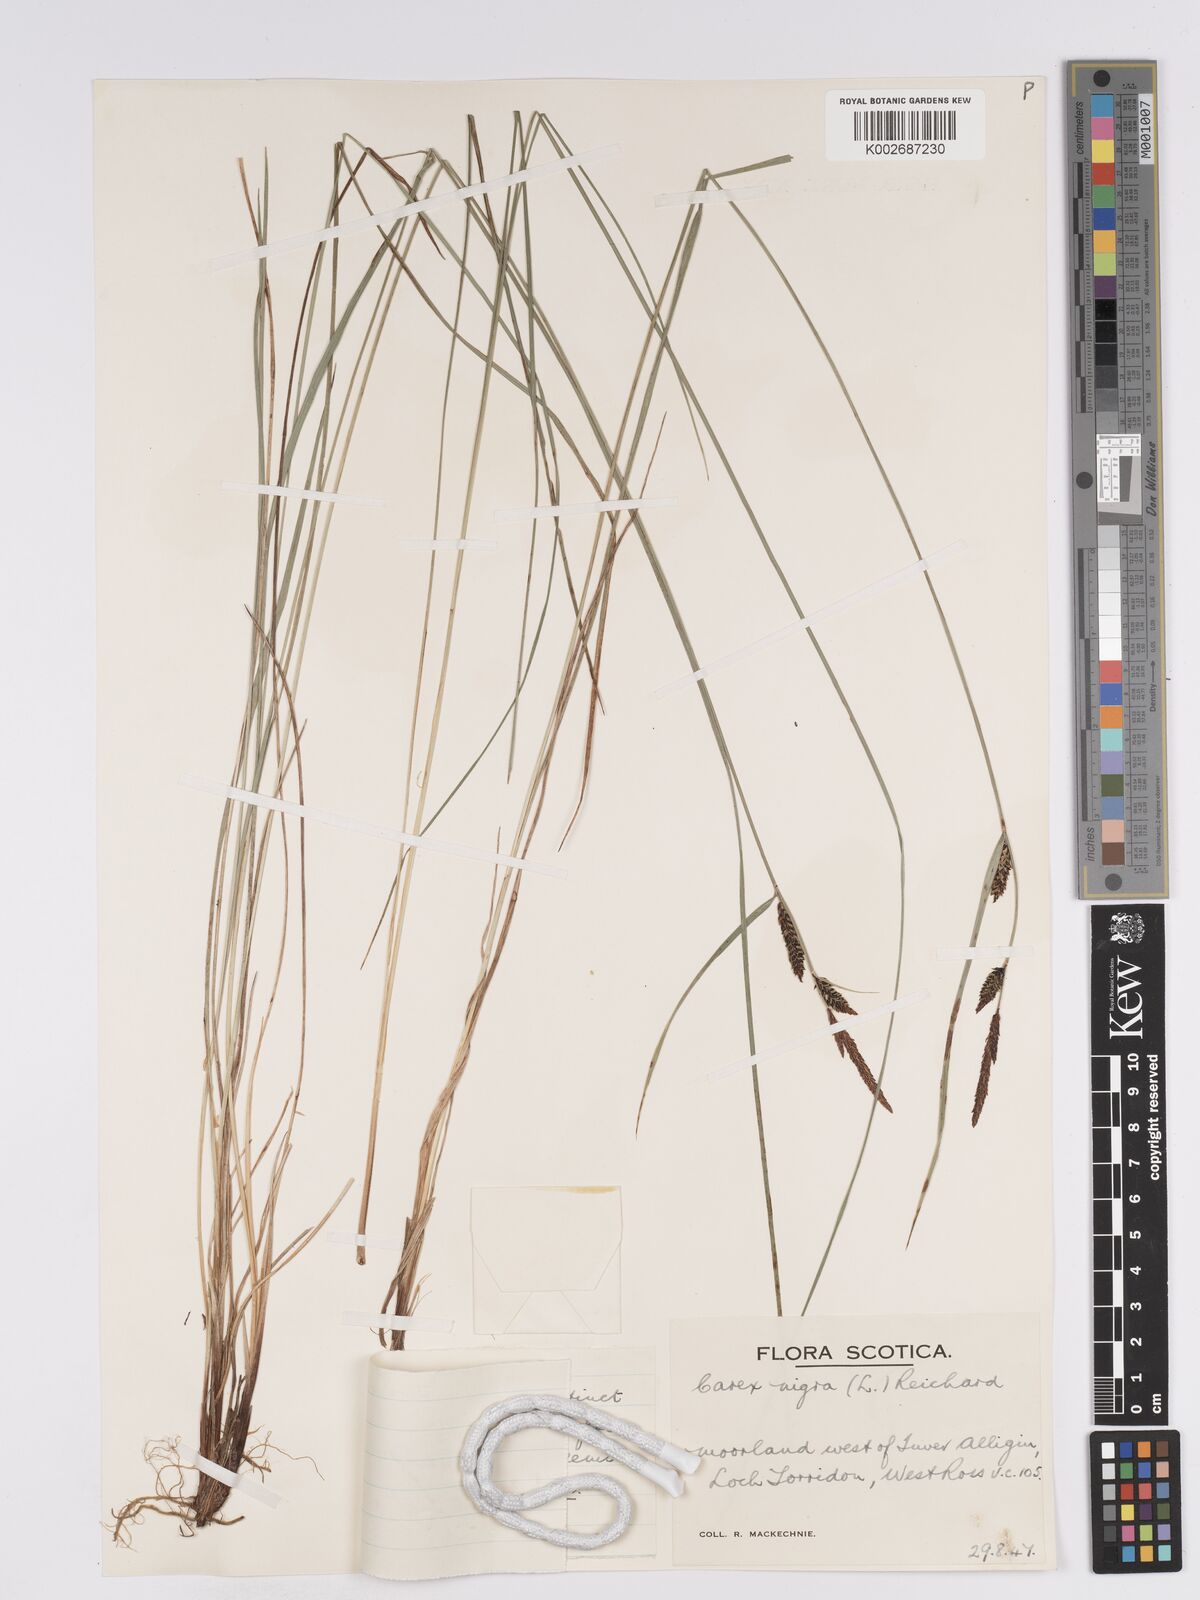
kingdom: Plantae
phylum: Tracheophyta
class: Liliopsida
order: Poales
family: Cyperaceae
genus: Carex
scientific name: Carex nigra
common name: Common sedge
